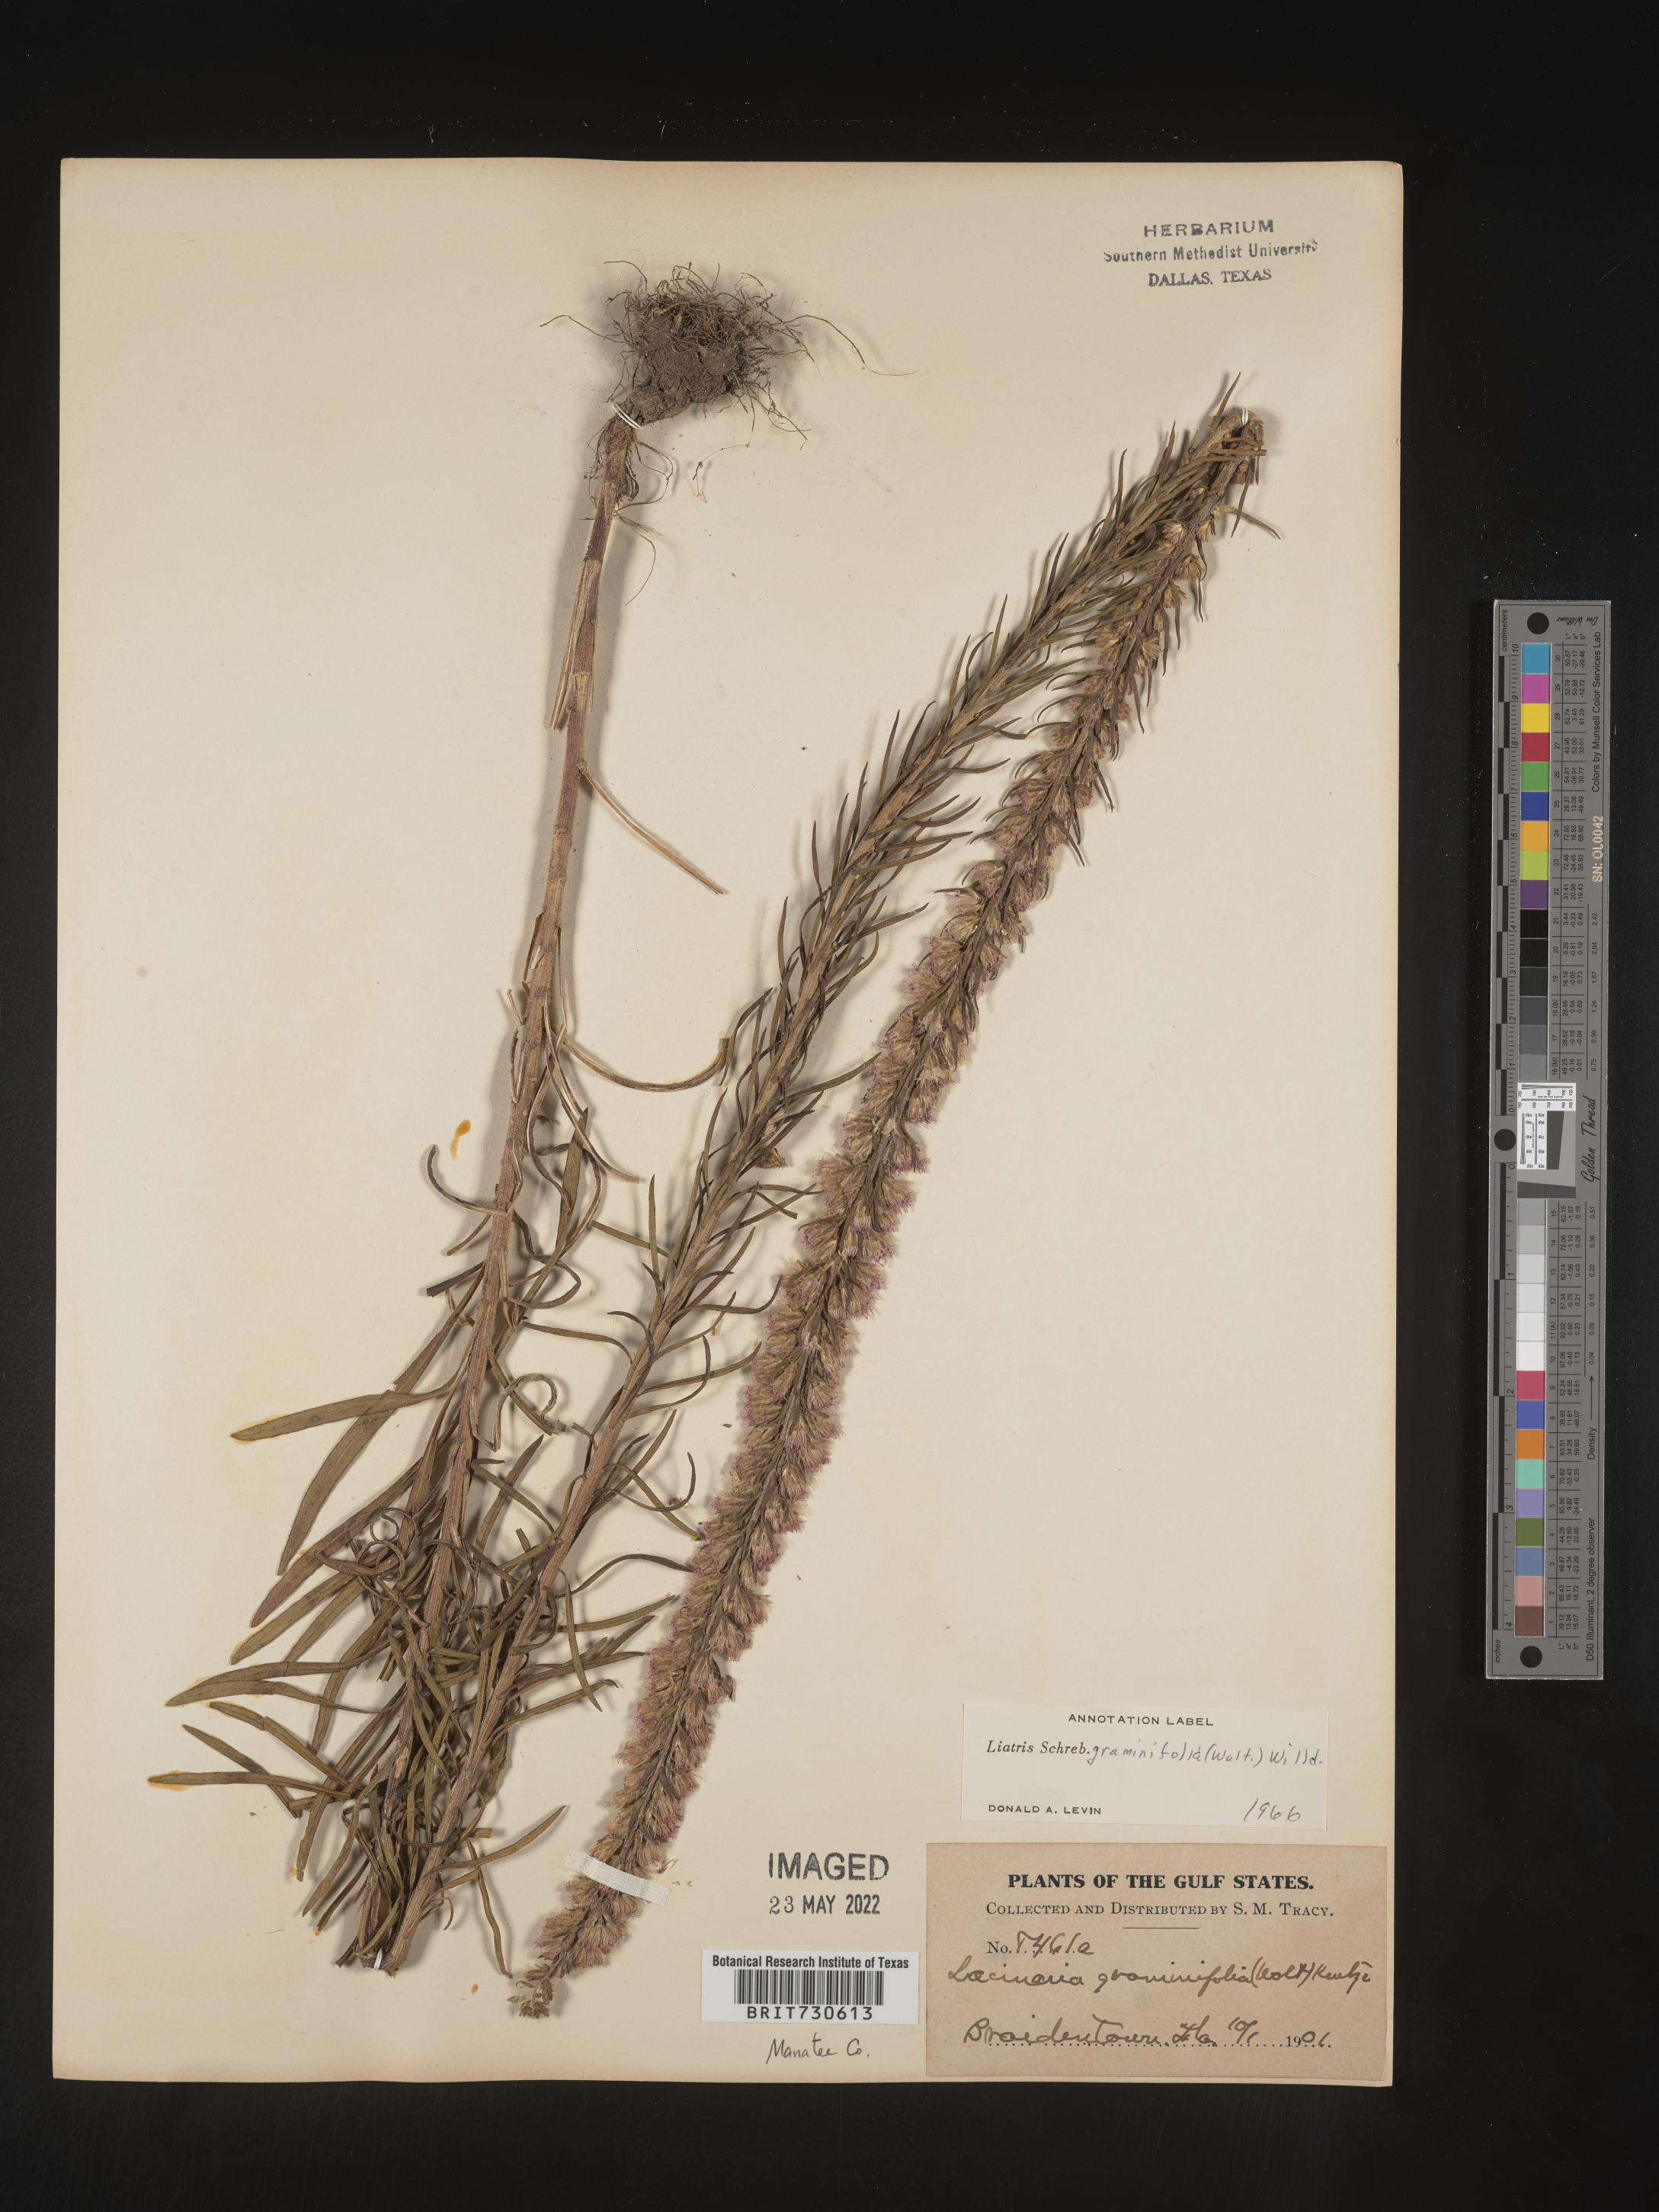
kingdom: Plantae
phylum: Tracheophyta
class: Magnoliopsida
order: Asterales
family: Asteraceae
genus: Liatris
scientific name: Liatris gracilis
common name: Slender gayfeather
